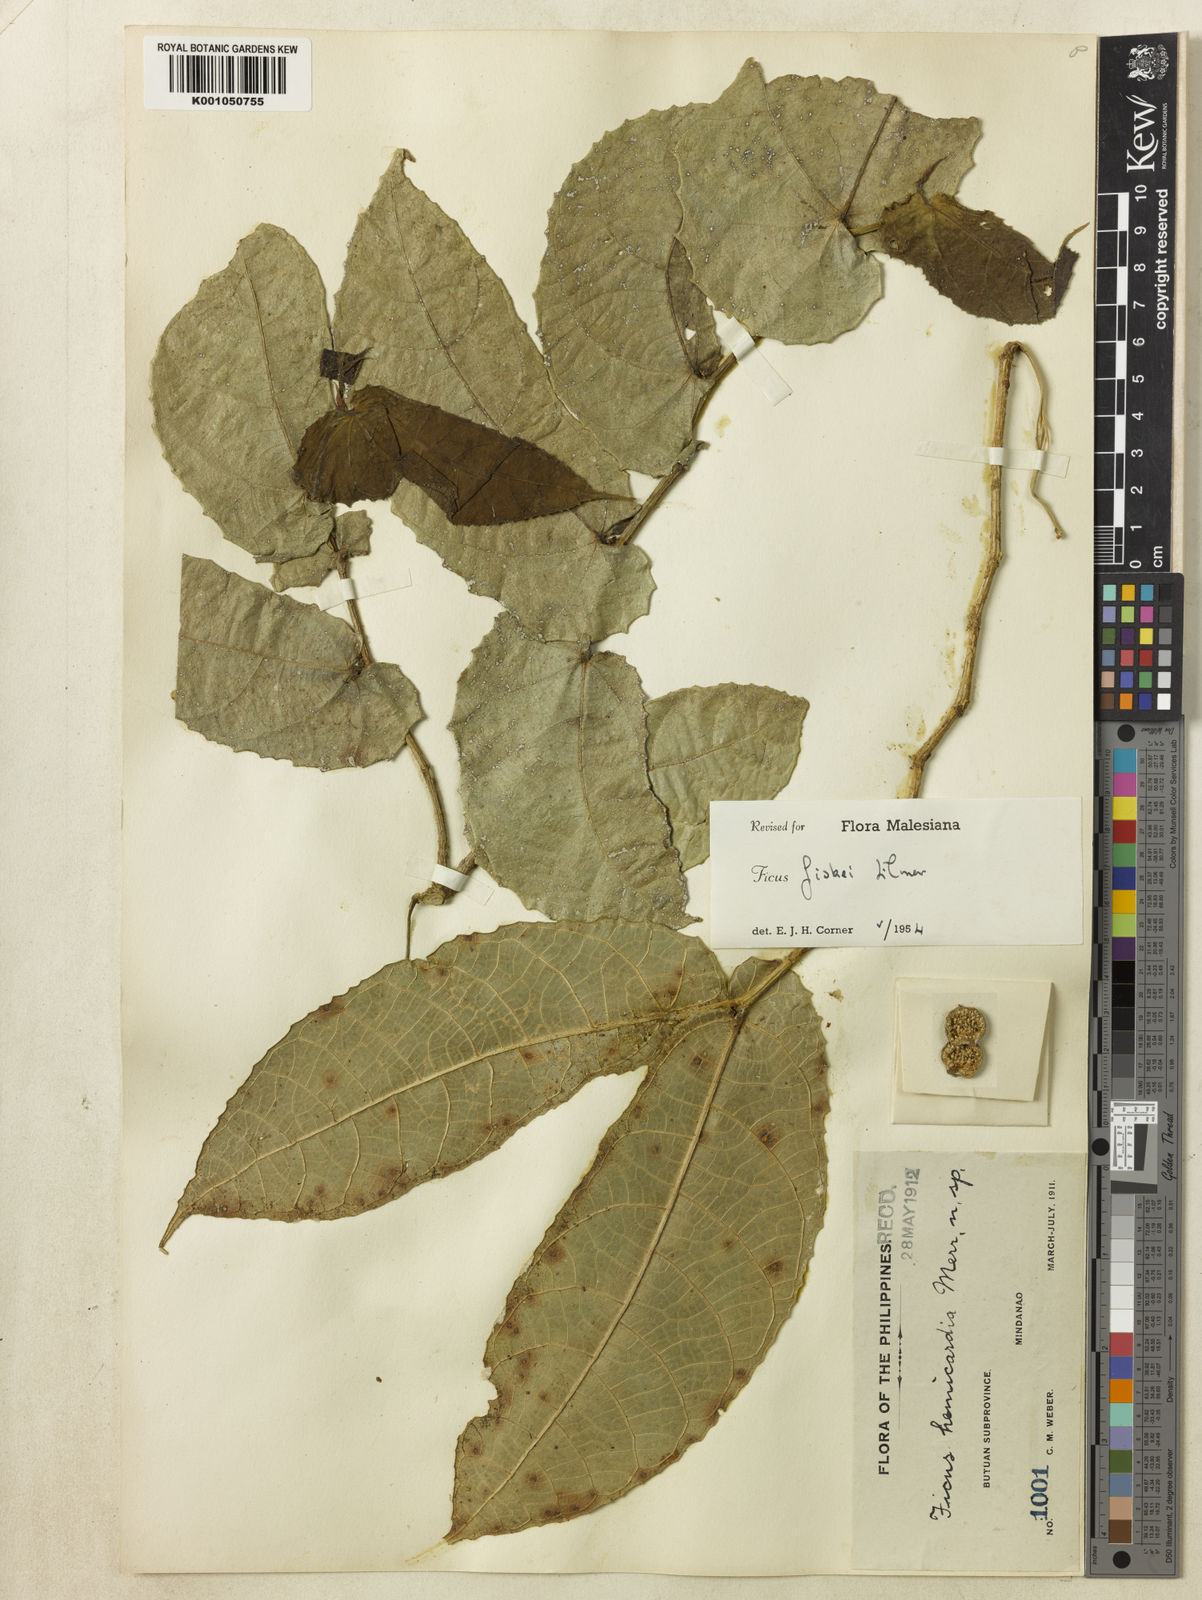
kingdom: Plantae
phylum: Tracheophyta
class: Magnoliopsida
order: Rosales
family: Moraceae
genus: Ficus
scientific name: Ficus fiskei
